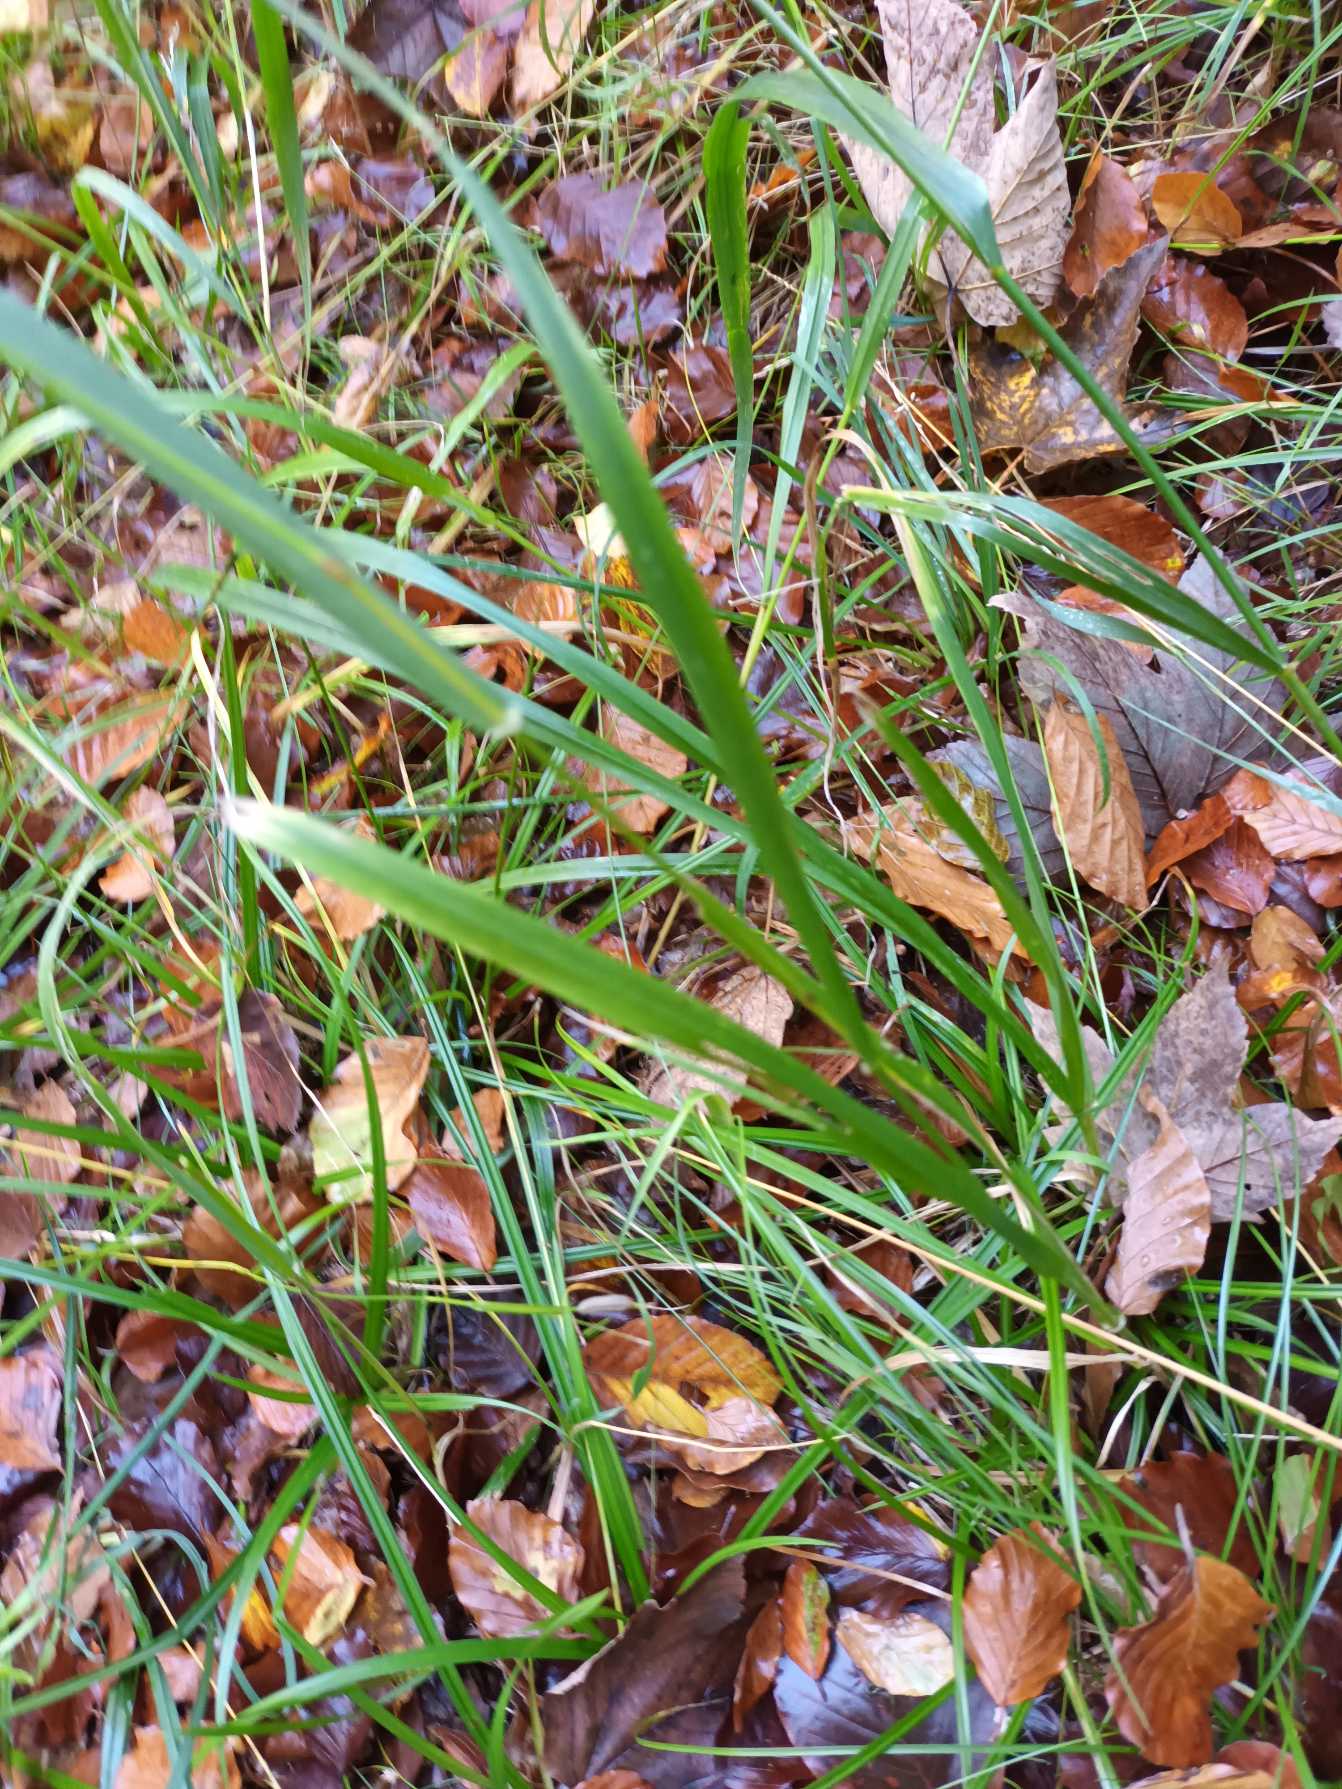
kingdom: Plantae
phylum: Tracheophyta
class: Liliopsida
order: Poales
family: Poaceae
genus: Lolium
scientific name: Lolium giganteum
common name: Kæmpe-svingel
